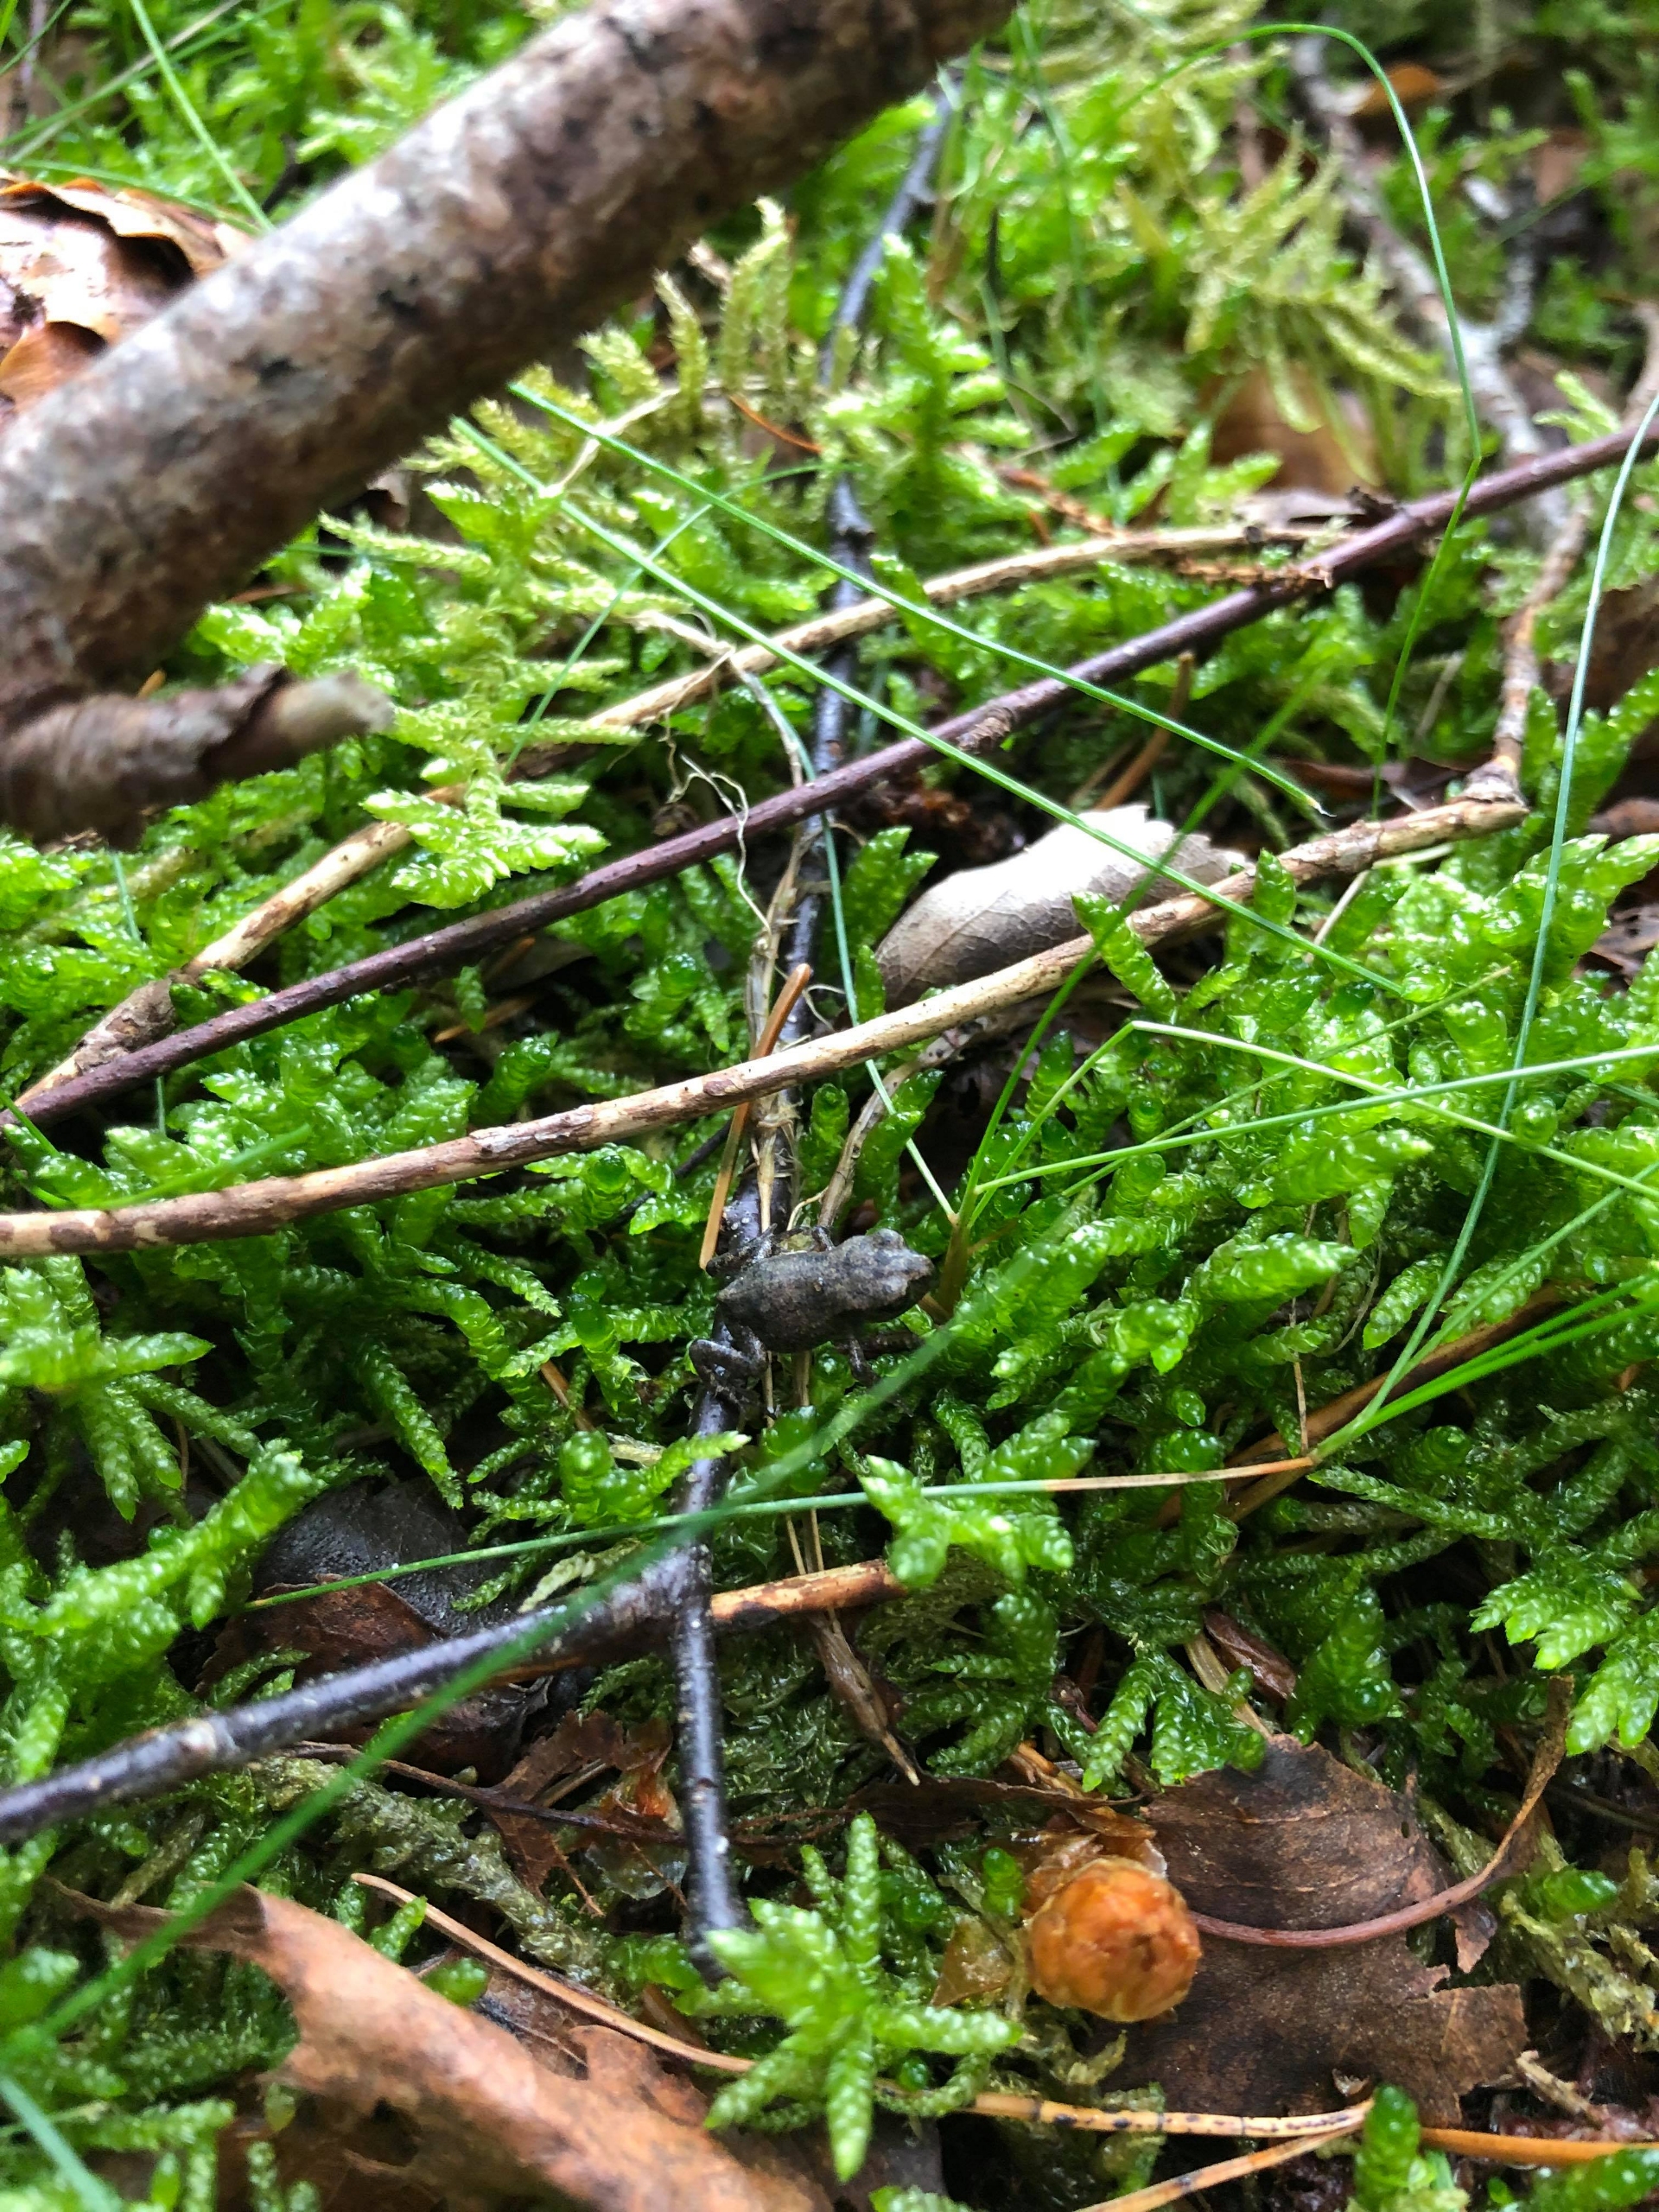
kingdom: Animalia
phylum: Chordata
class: Amphibia
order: Anura
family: Bufonidae
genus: Bufo
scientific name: Bufo bufo
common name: Skrubtudse
